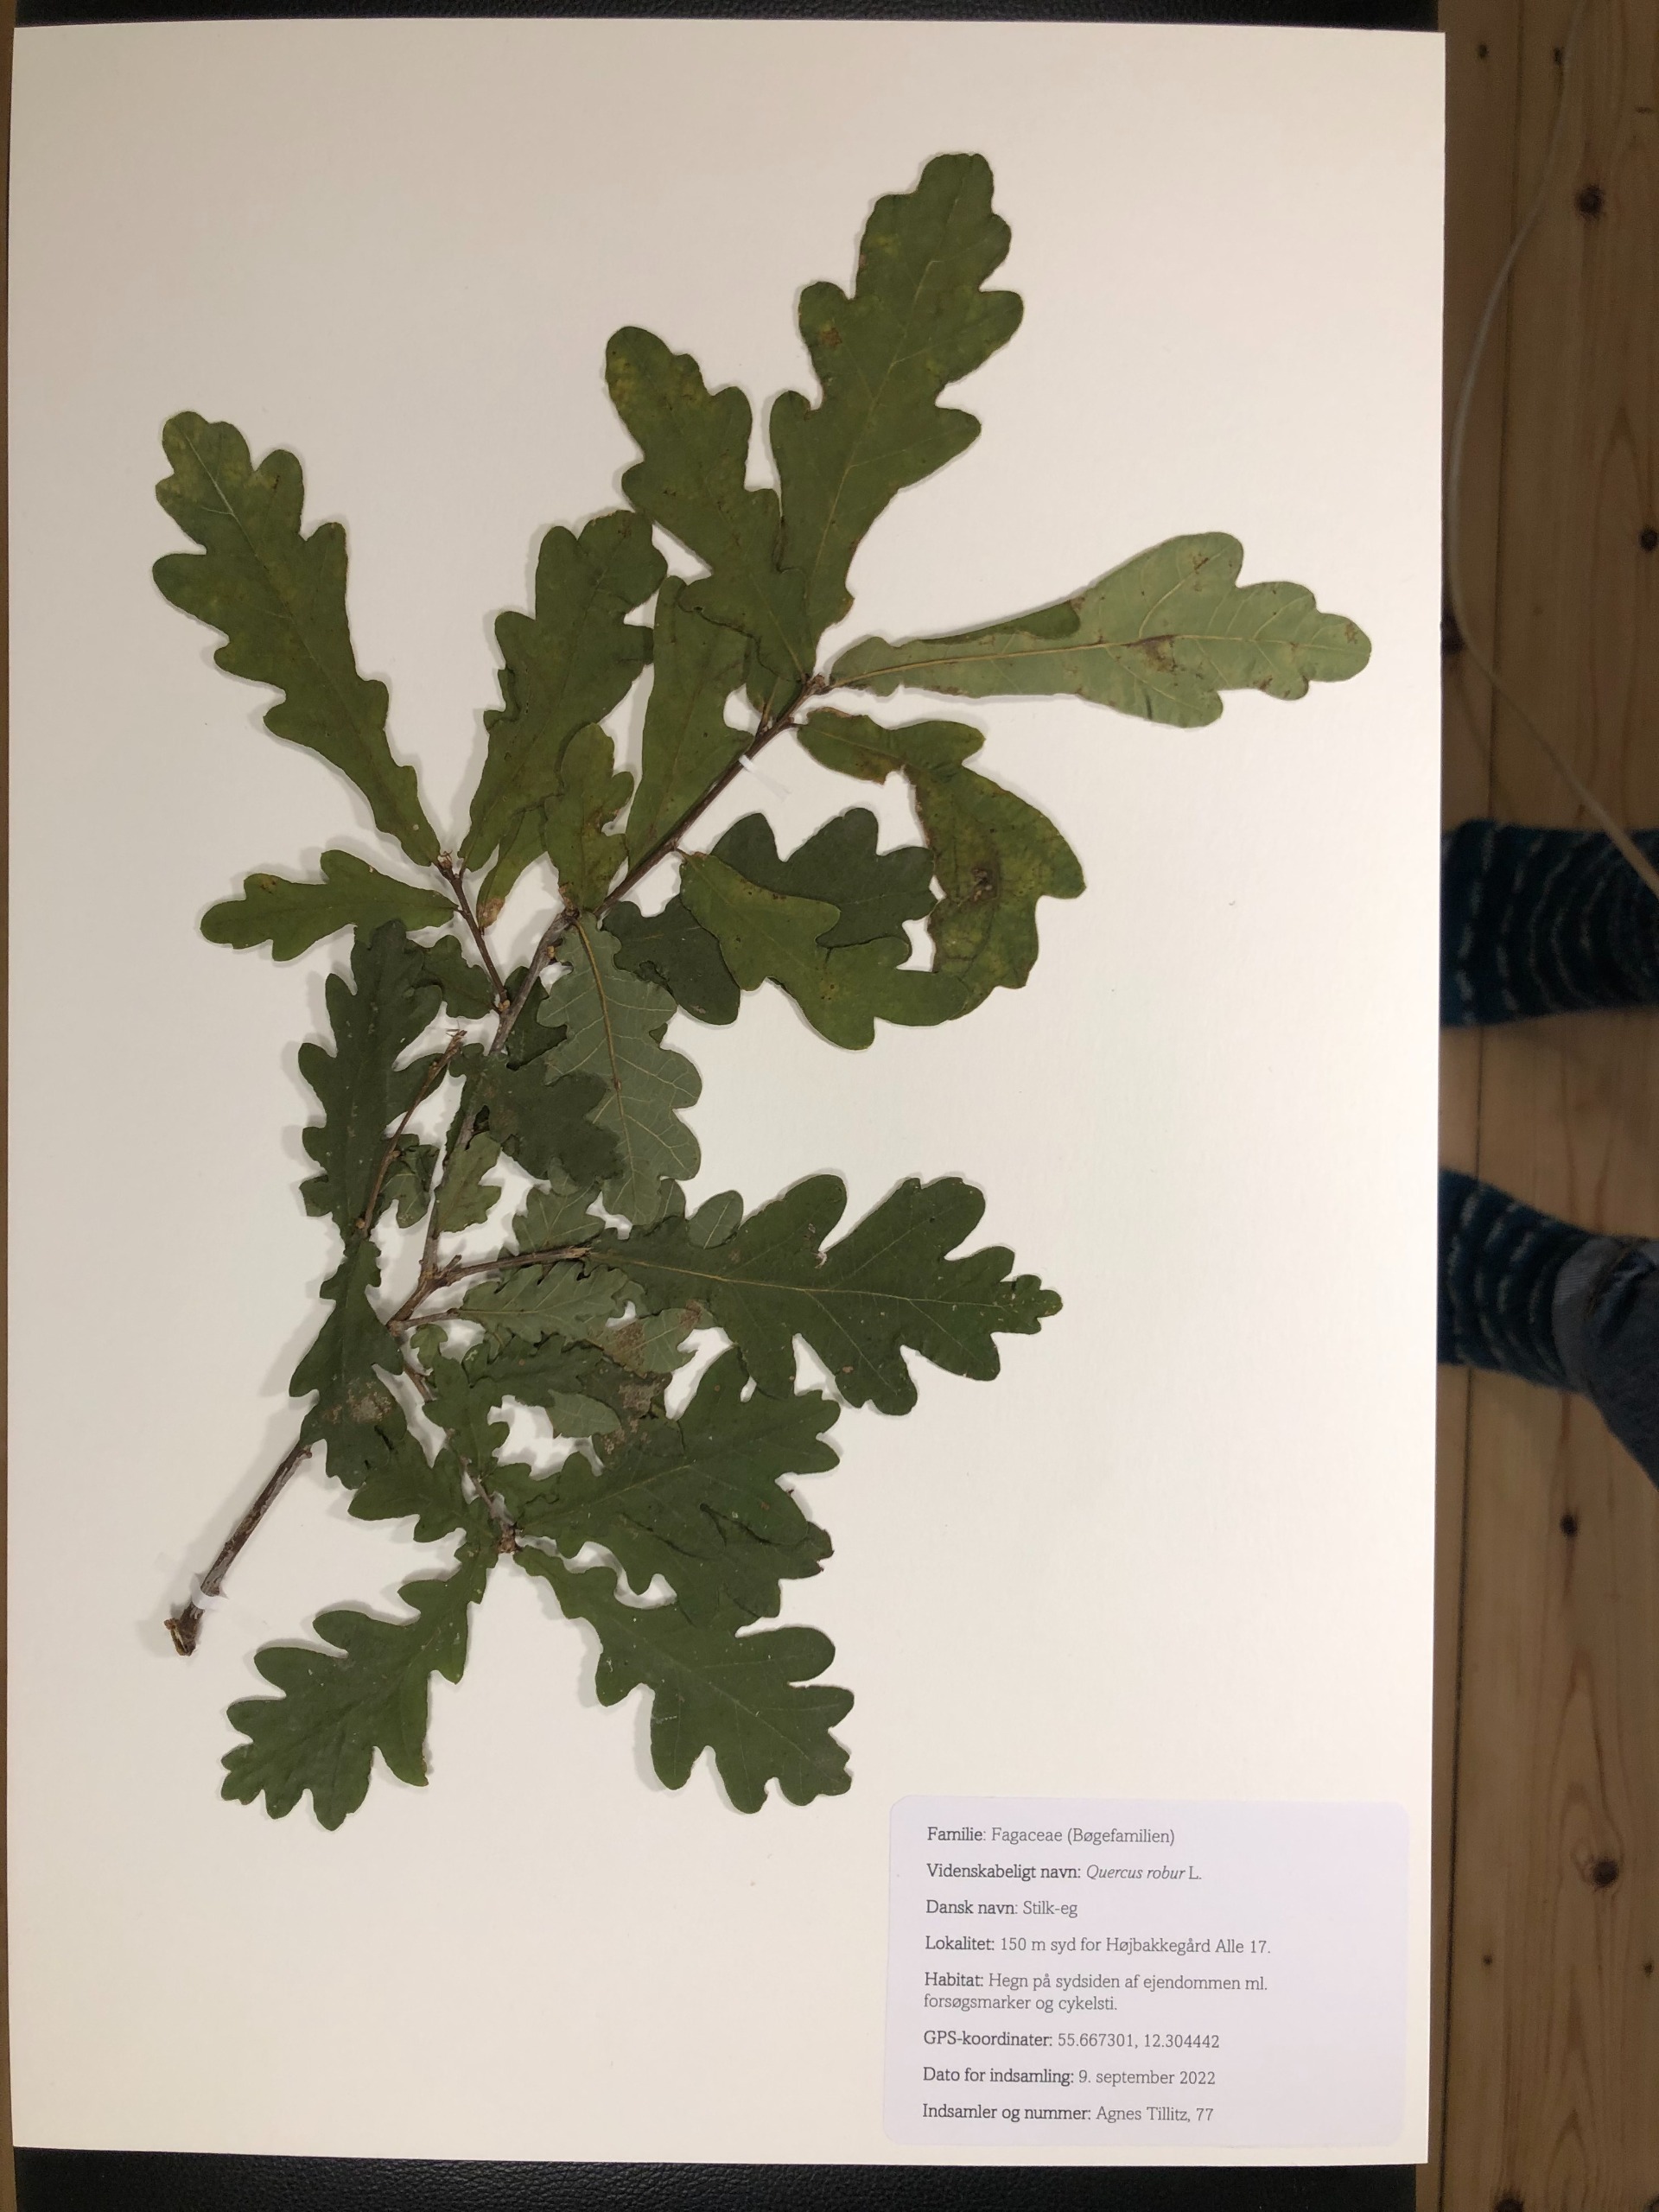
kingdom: Plantae
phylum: Tracheophyta
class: Magnoliopsida
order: Fagales
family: Fagaceae
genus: Quercus
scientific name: Quercus robur
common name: Stilk-eg/almindelig eg
